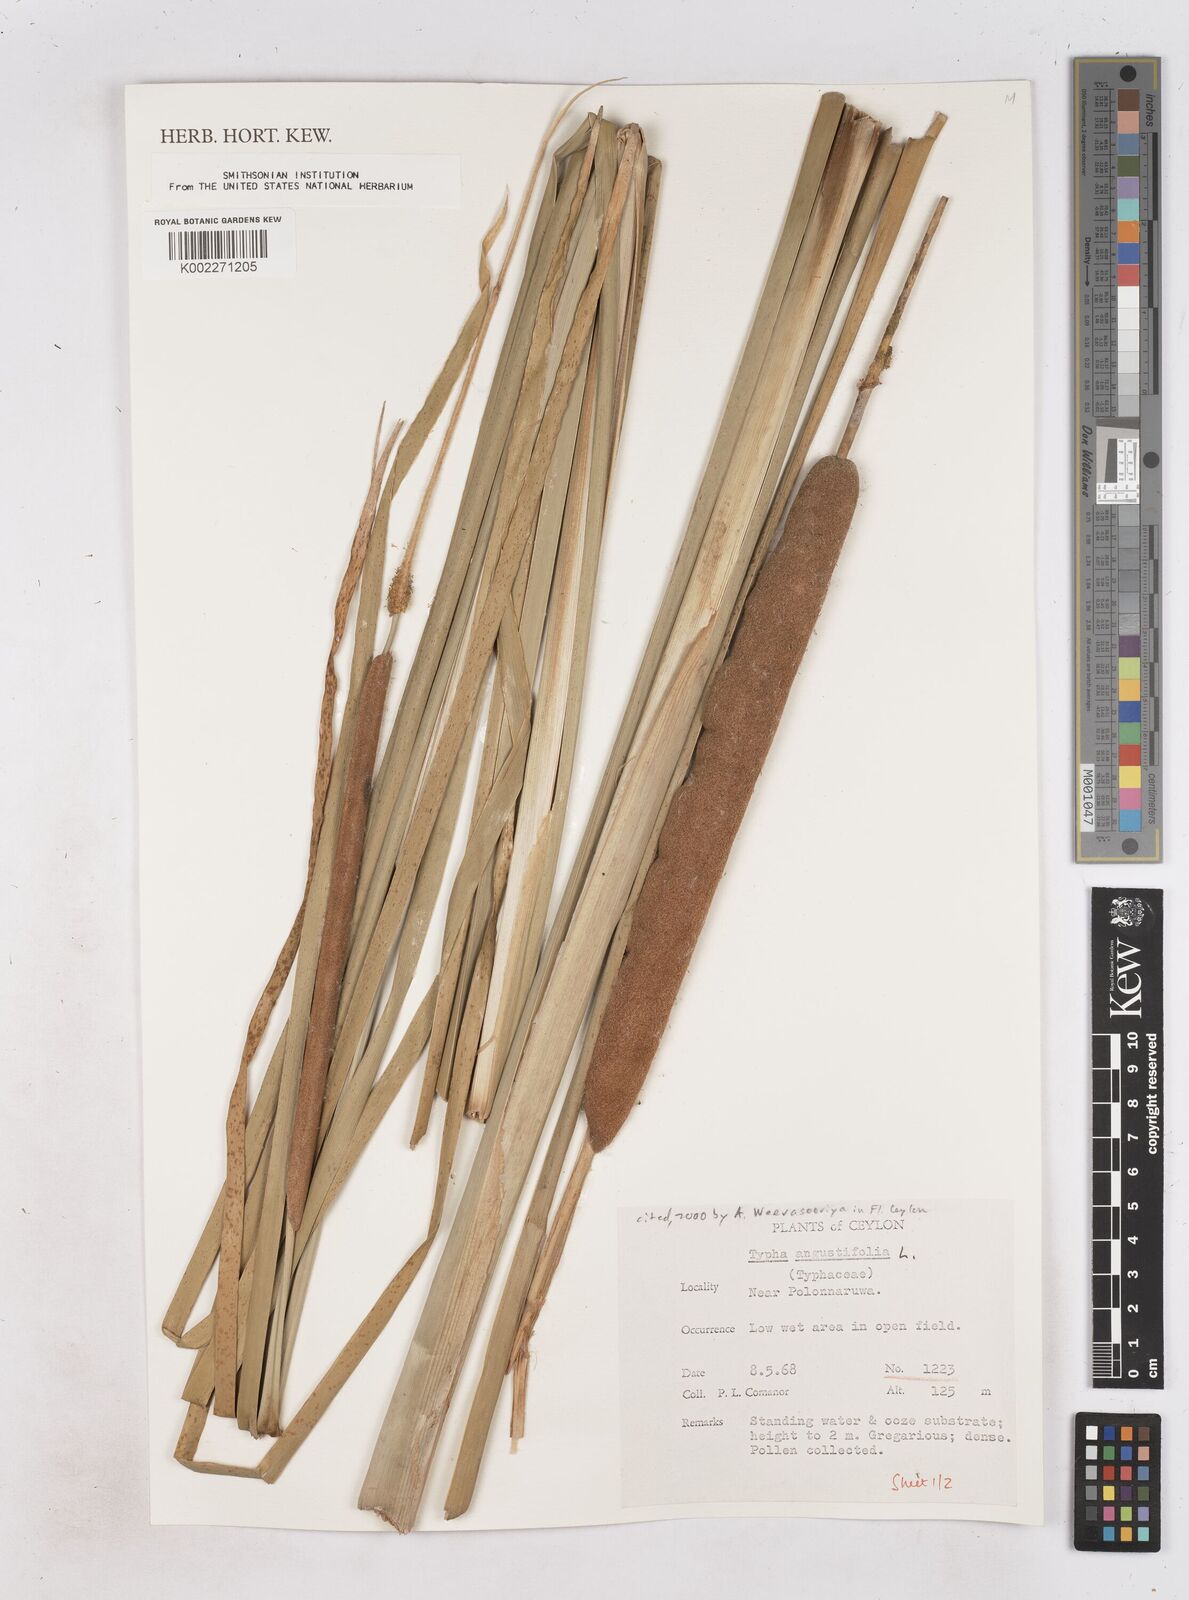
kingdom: Plantae
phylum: Tracheophyta
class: Liliopsida
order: Poales
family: Typhaceae
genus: Typha
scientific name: Typha domingensis
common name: Southern cattail
